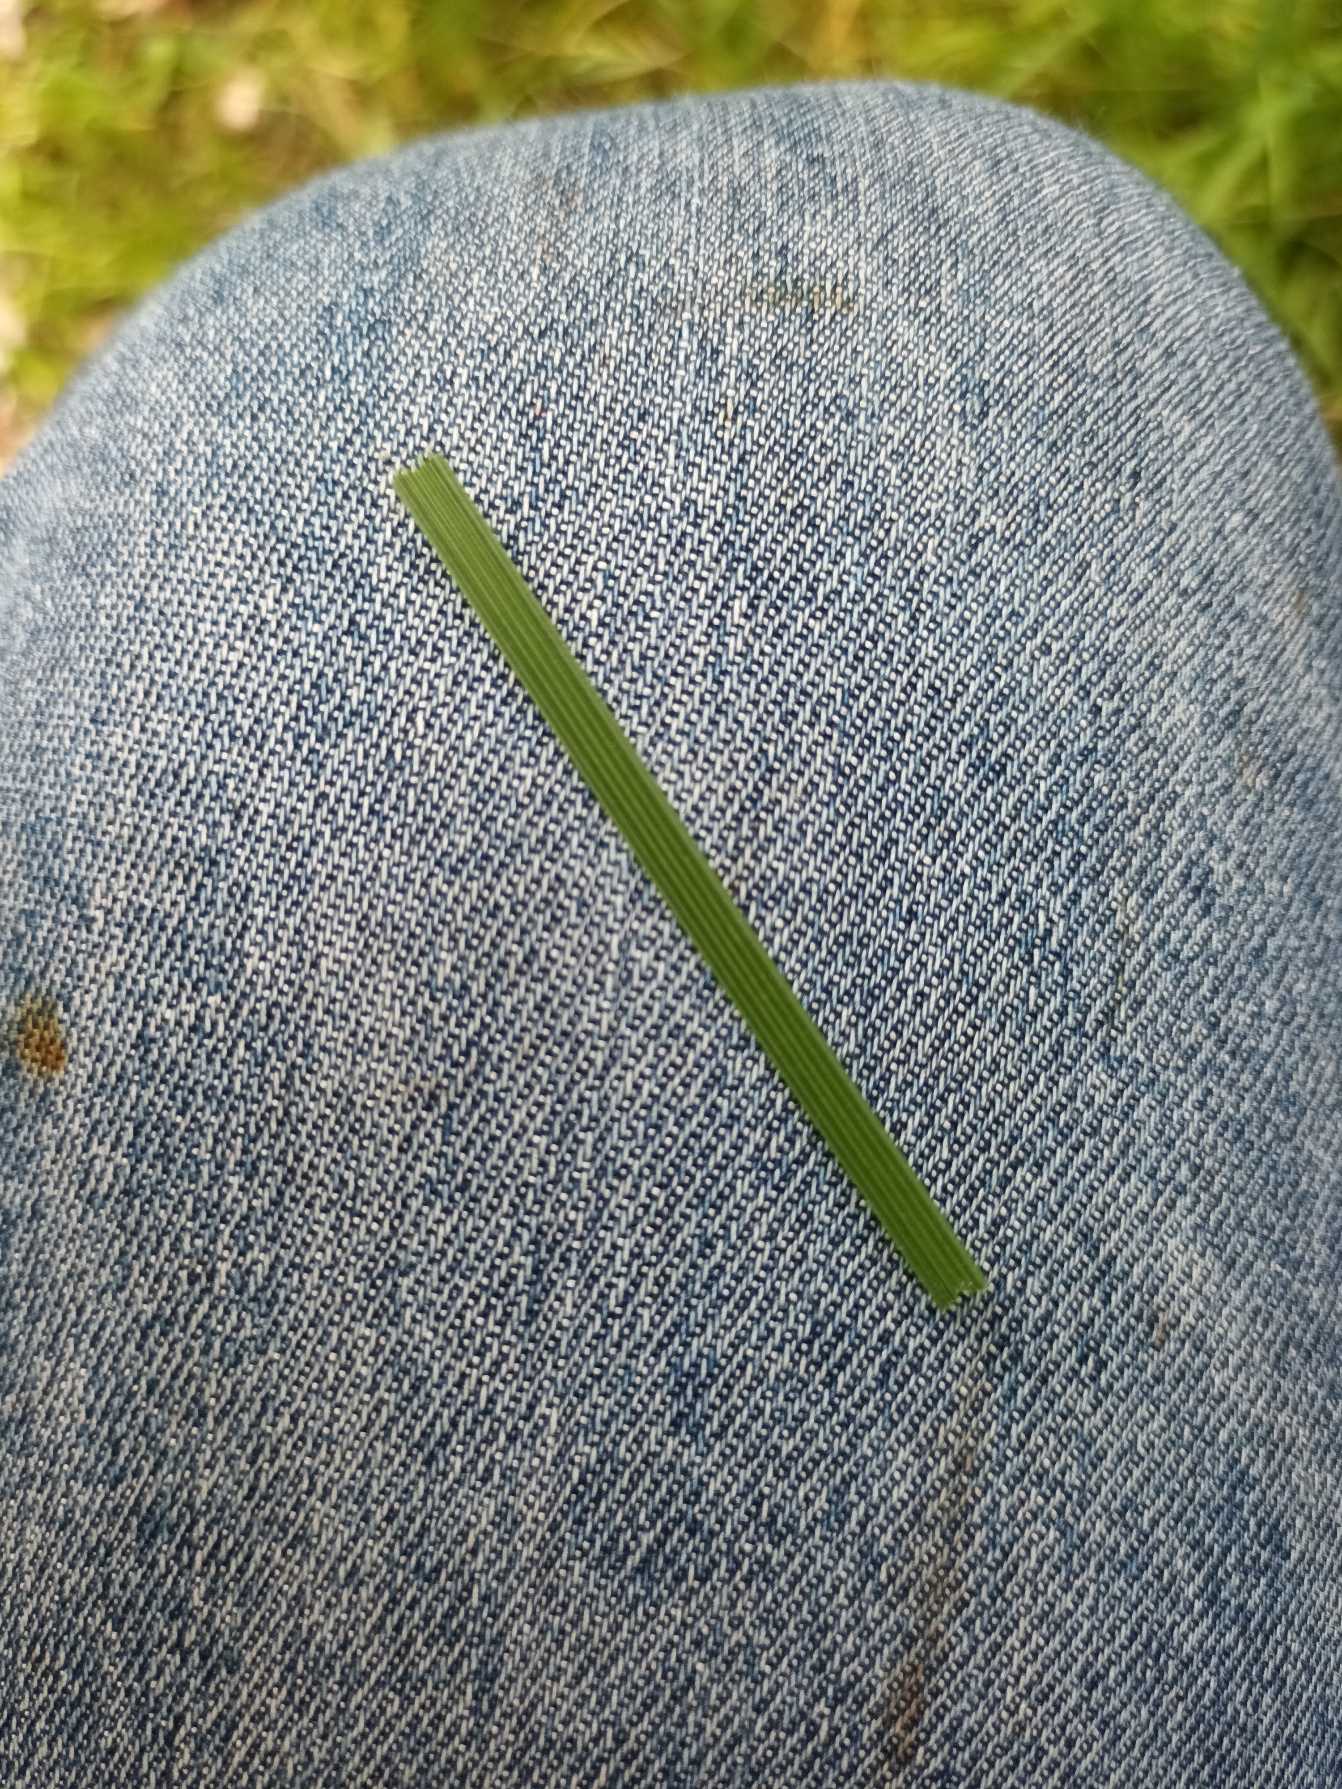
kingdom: Plantae
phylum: Tracheophyta
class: Liliopsida
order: Poales
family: Poaceae
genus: Deschampsia
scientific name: Deschampsia cespitosa
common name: Mose-bunke
